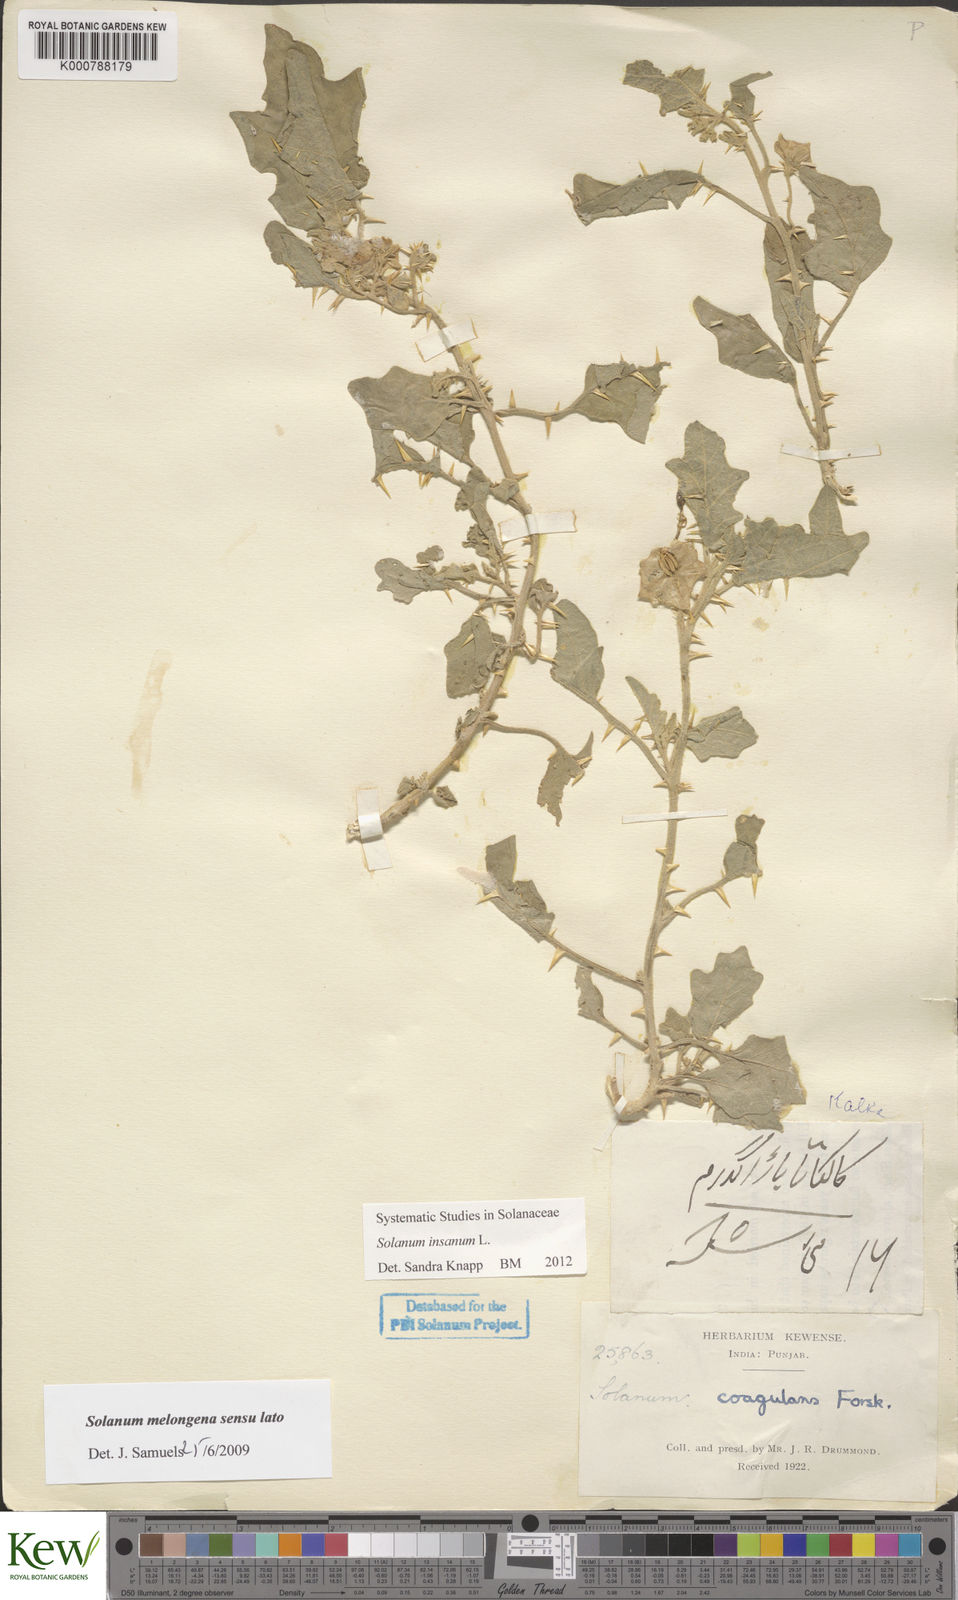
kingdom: Plantae
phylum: Tracheophyta
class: Magnoliopsida
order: Solanales
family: Solanaceae
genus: Solanum
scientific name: Solanum insanum
